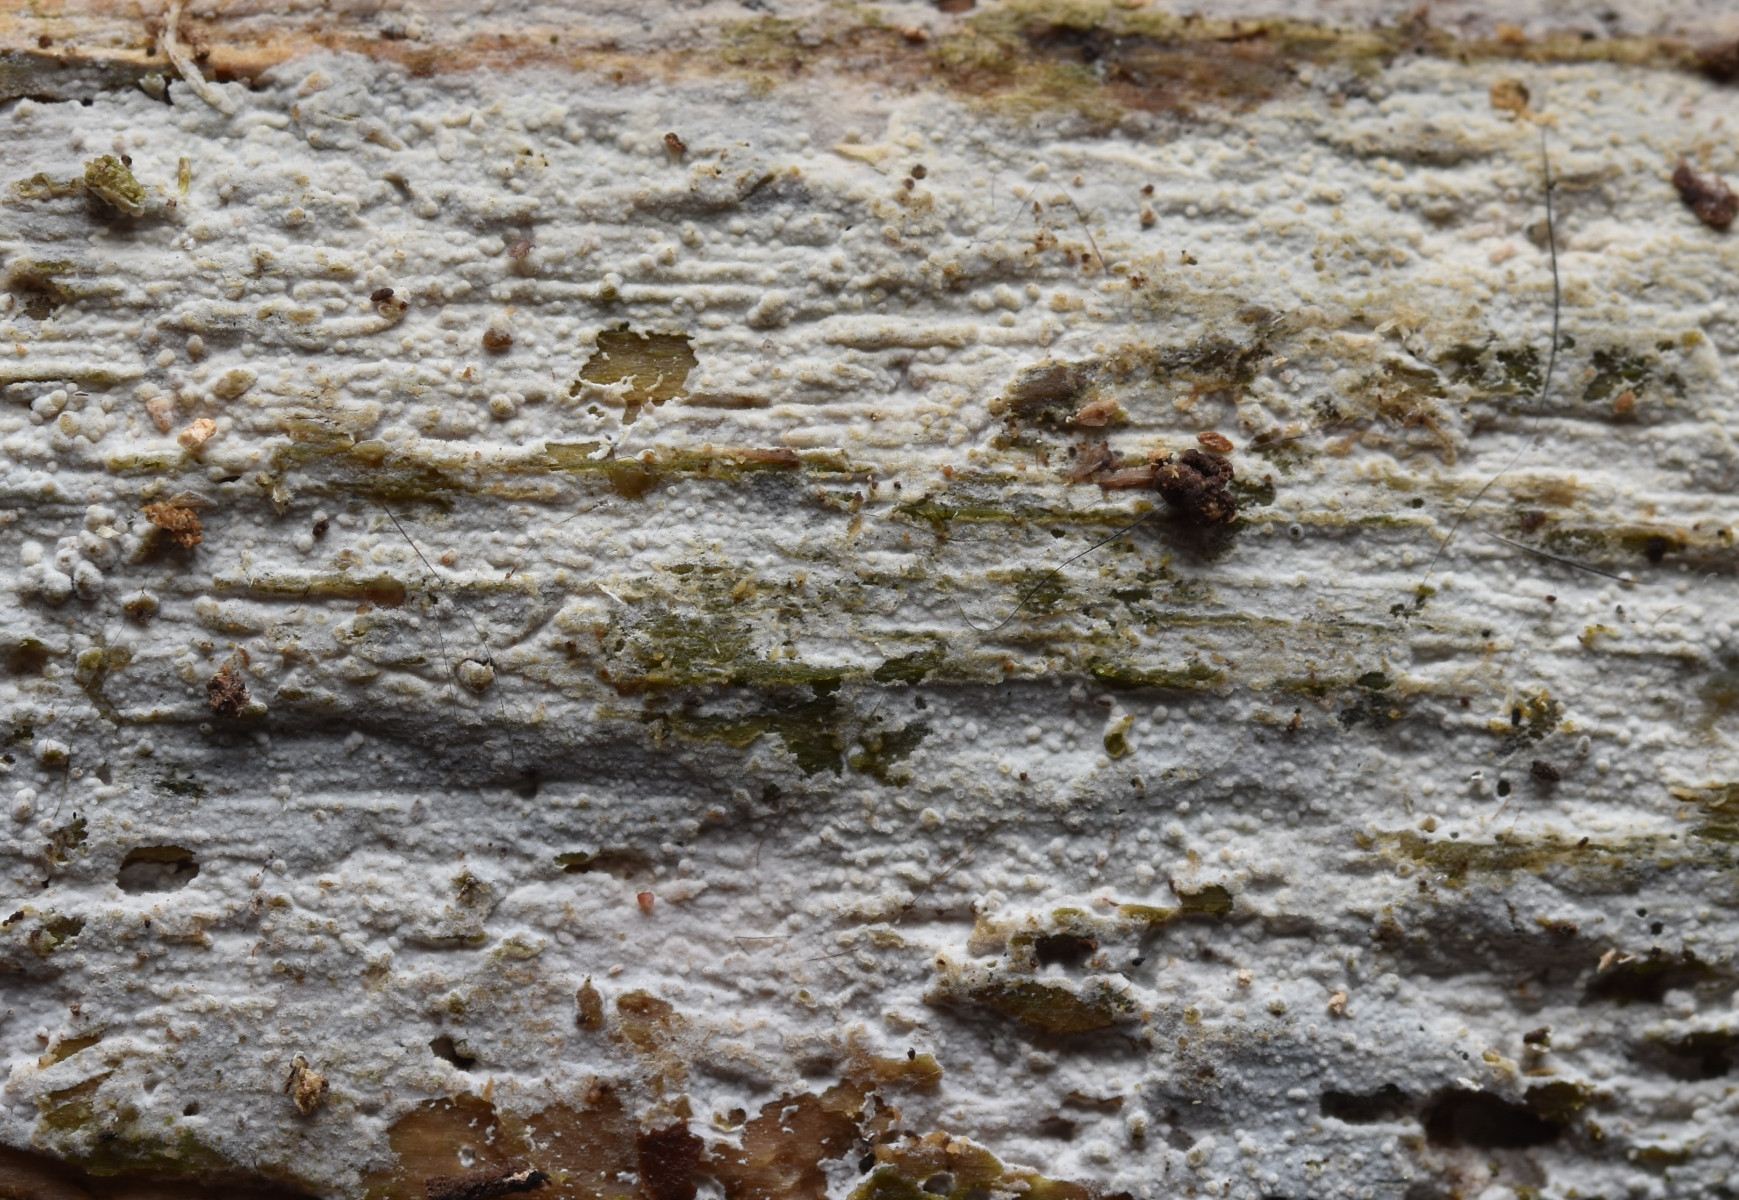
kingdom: Fungi
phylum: Basidiomycota
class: Agaricomycetes
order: Hymenochaetales
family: Hyphodontiaceae
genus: Hyphodontia
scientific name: Hyphodontia alutaria
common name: flaskerenser-nålehinde
